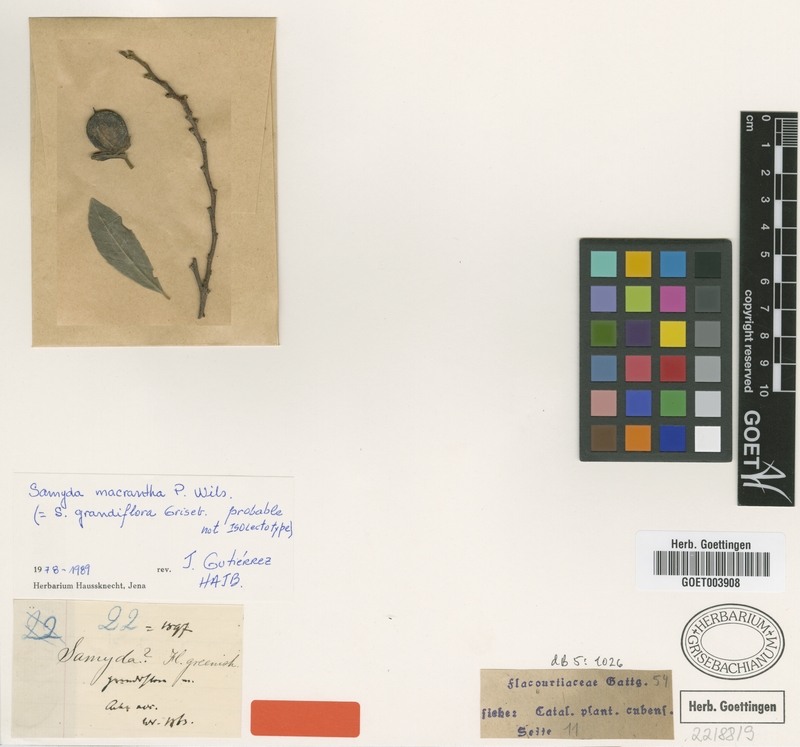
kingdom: Plantae
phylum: Tracheophyta
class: Magnoliopsida
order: Malpighiales
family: Salicaceae
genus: Casearia
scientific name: Casearia dolichanthera
